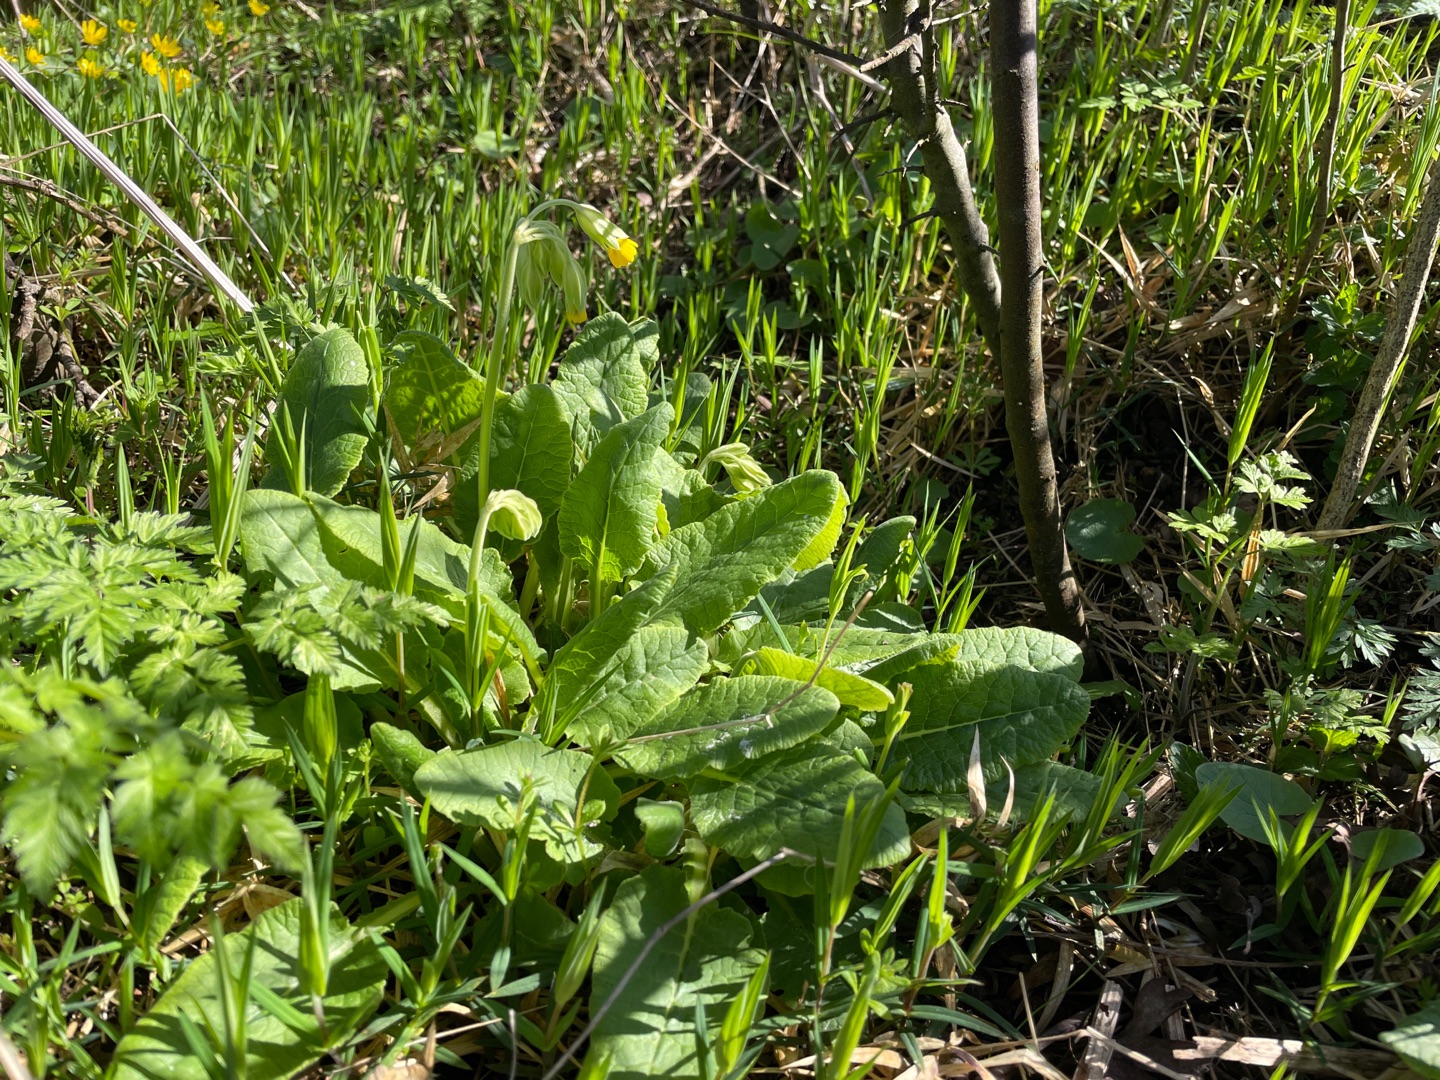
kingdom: Plantae
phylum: Tracheophyta
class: Magnoliopsida
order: Ericales
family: Primulaceae
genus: Primula
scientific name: Primula veris
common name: Hulkravet kodriver
